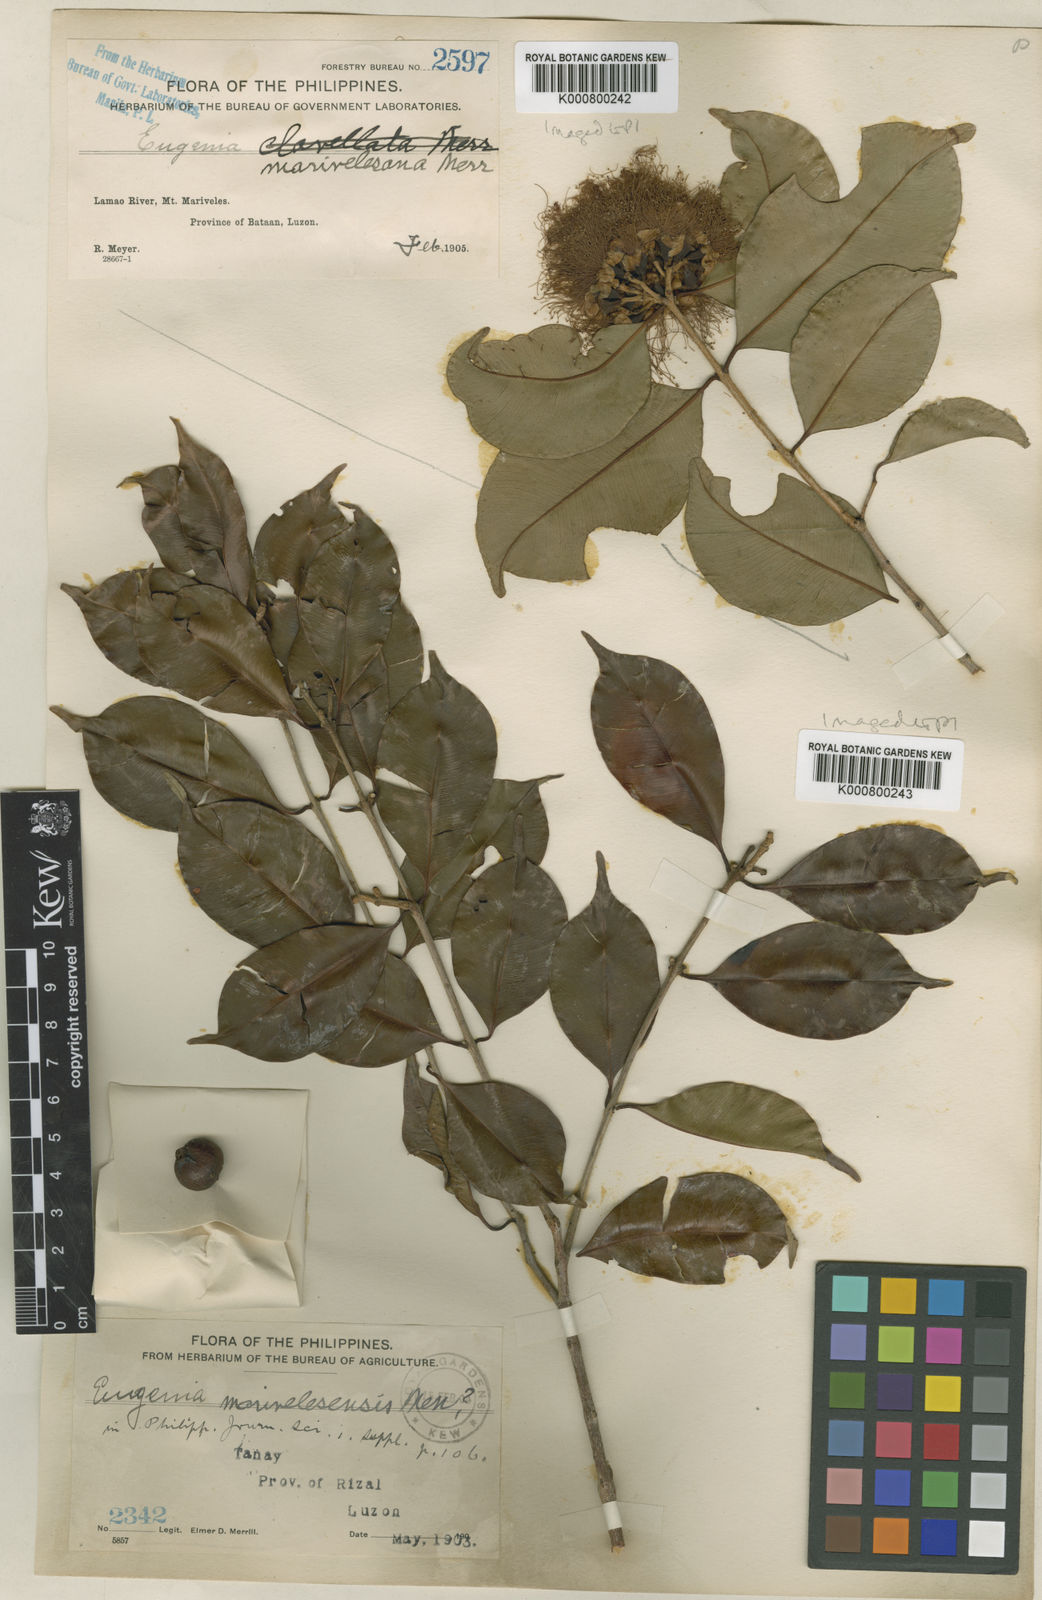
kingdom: Plantae
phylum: Tracheophyta
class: Magnoliopsida
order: Myrtales
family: Myrtaceae
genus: Syzygium
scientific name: Syzygium lineatum
